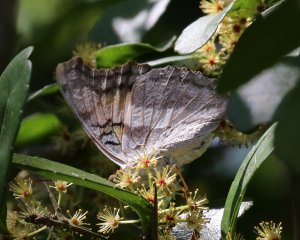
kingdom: Animalia
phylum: Arthropoda
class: Insecta
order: Lepidoptera
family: Nymphalidae
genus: Doxocopa
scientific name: Doxocopa laure
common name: Silver Emperor
